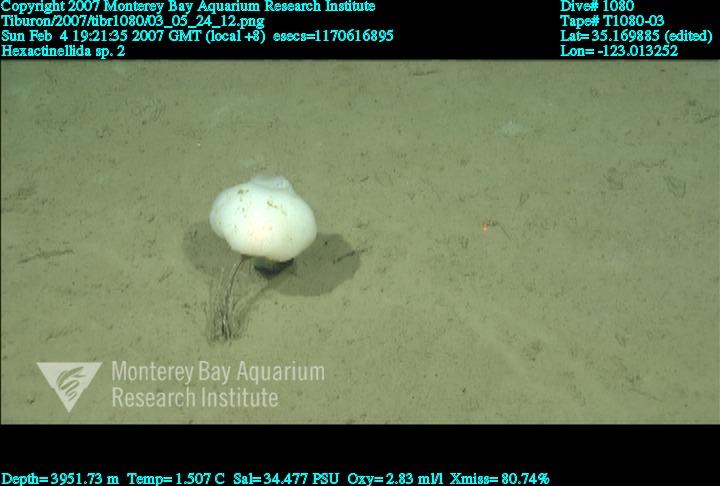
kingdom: Animalia
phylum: Porifera
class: Hexactinellida
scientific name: Hexactinellida
